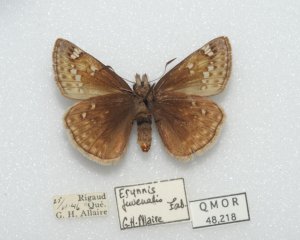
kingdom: Animalia
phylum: Arthropoda
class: Insecta
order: Lepidoptera
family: Hesperiidae
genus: Gesta
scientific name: Gesta
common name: Juvenal's Duskywing
